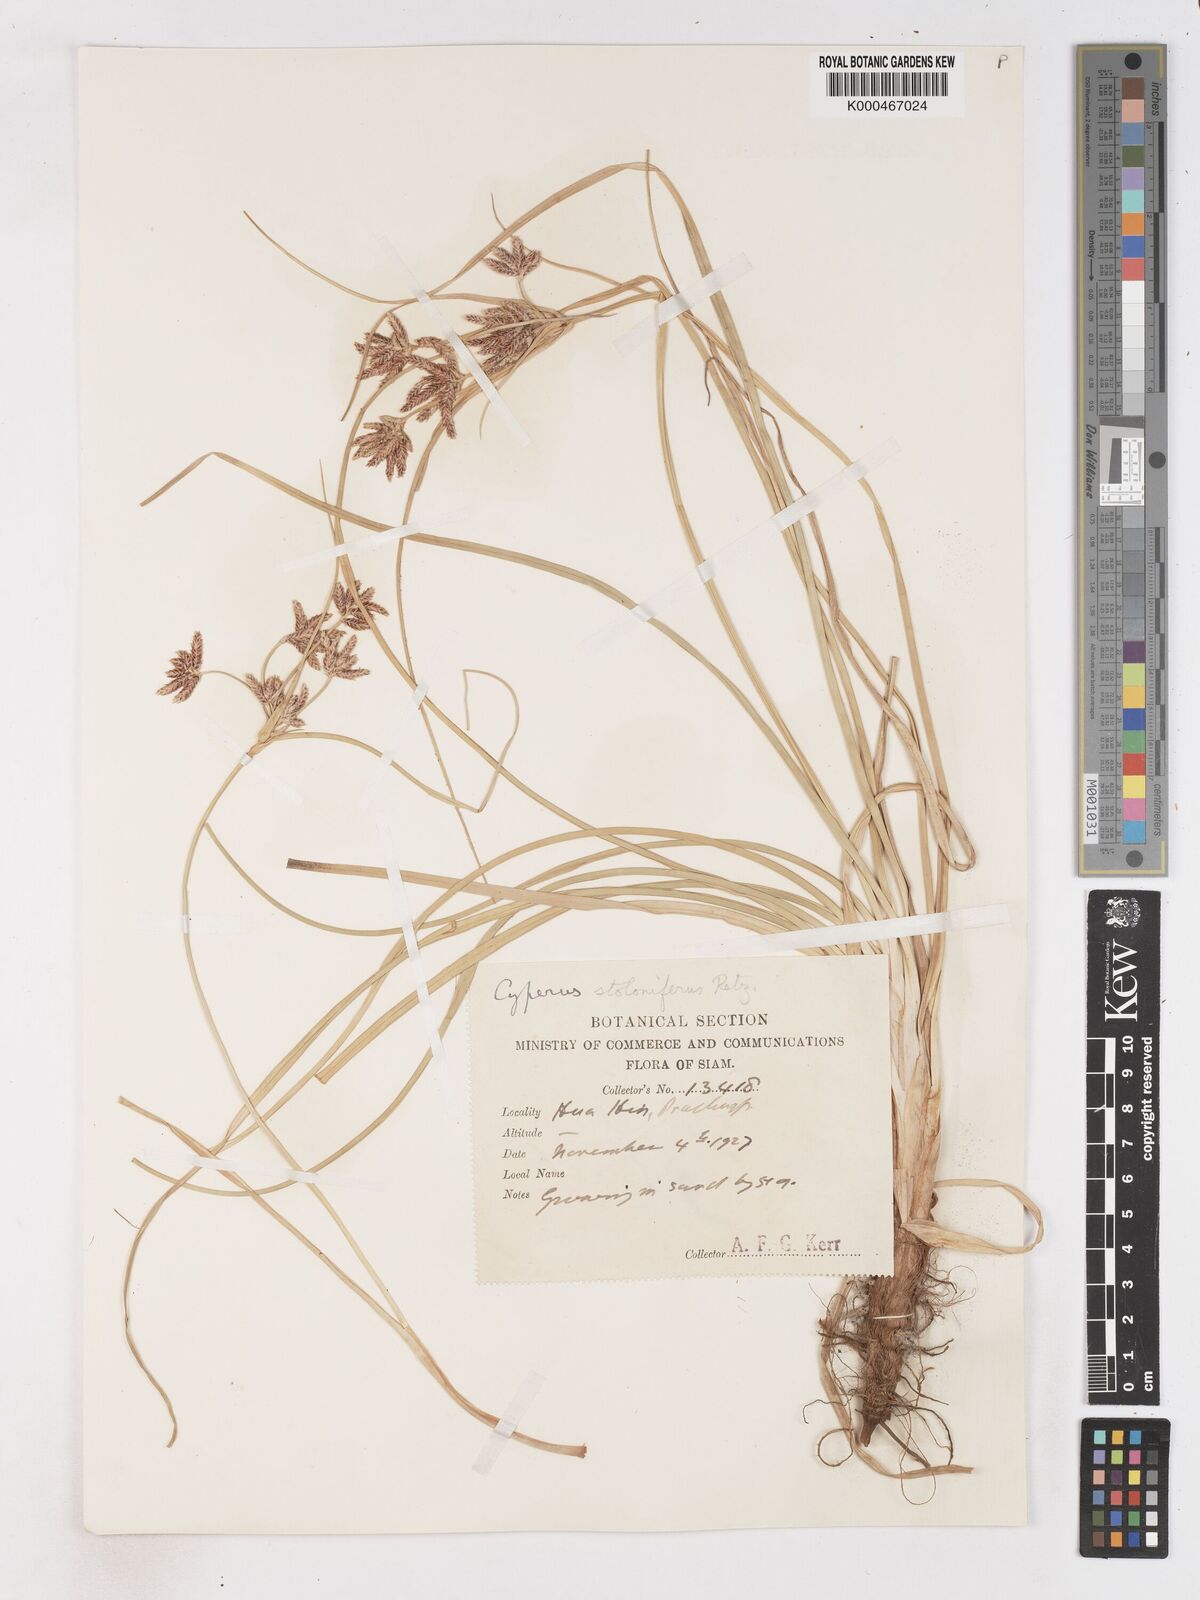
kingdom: Plantae
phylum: Tracheophyta
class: Liliopsida
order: Poales
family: Cyperaceae
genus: Cyperus
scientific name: Cyperus
